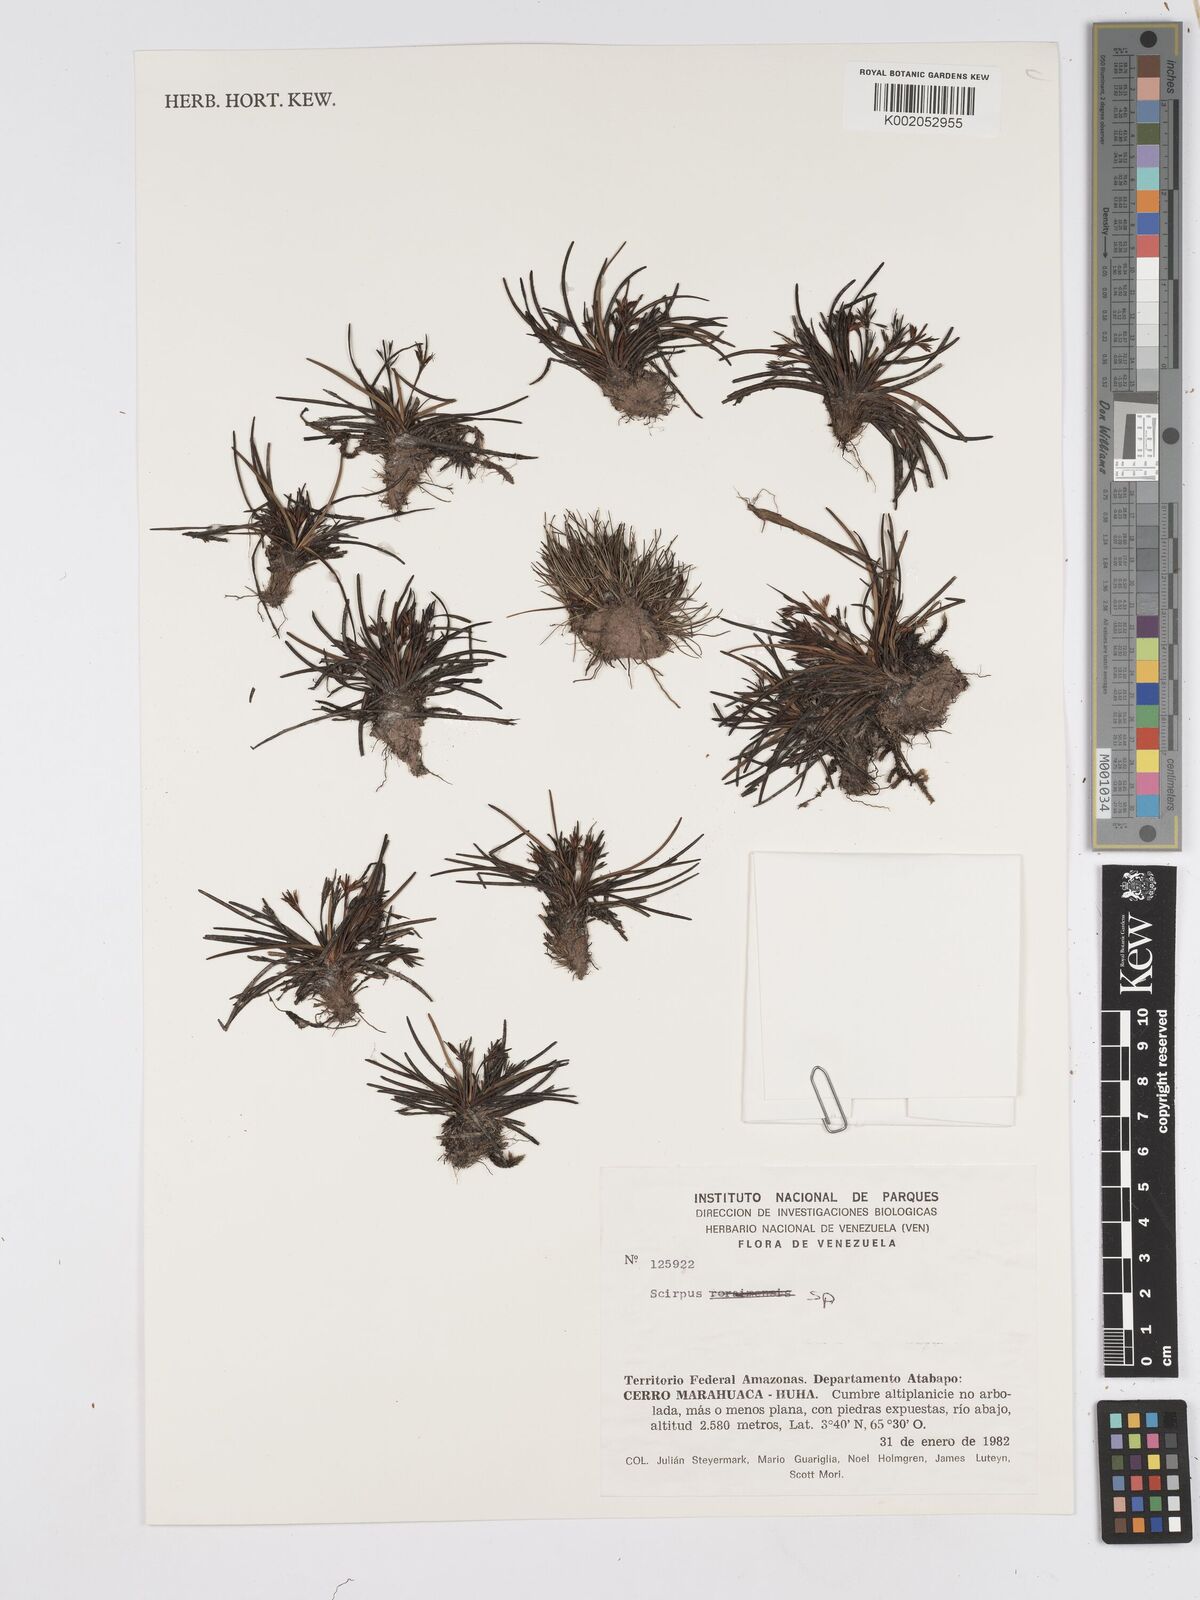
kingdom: Plantae
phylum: Tracheophyta
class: Liliopsida
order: Poales
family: Cyperaceae
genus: Scirpus
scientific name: Scirpus
